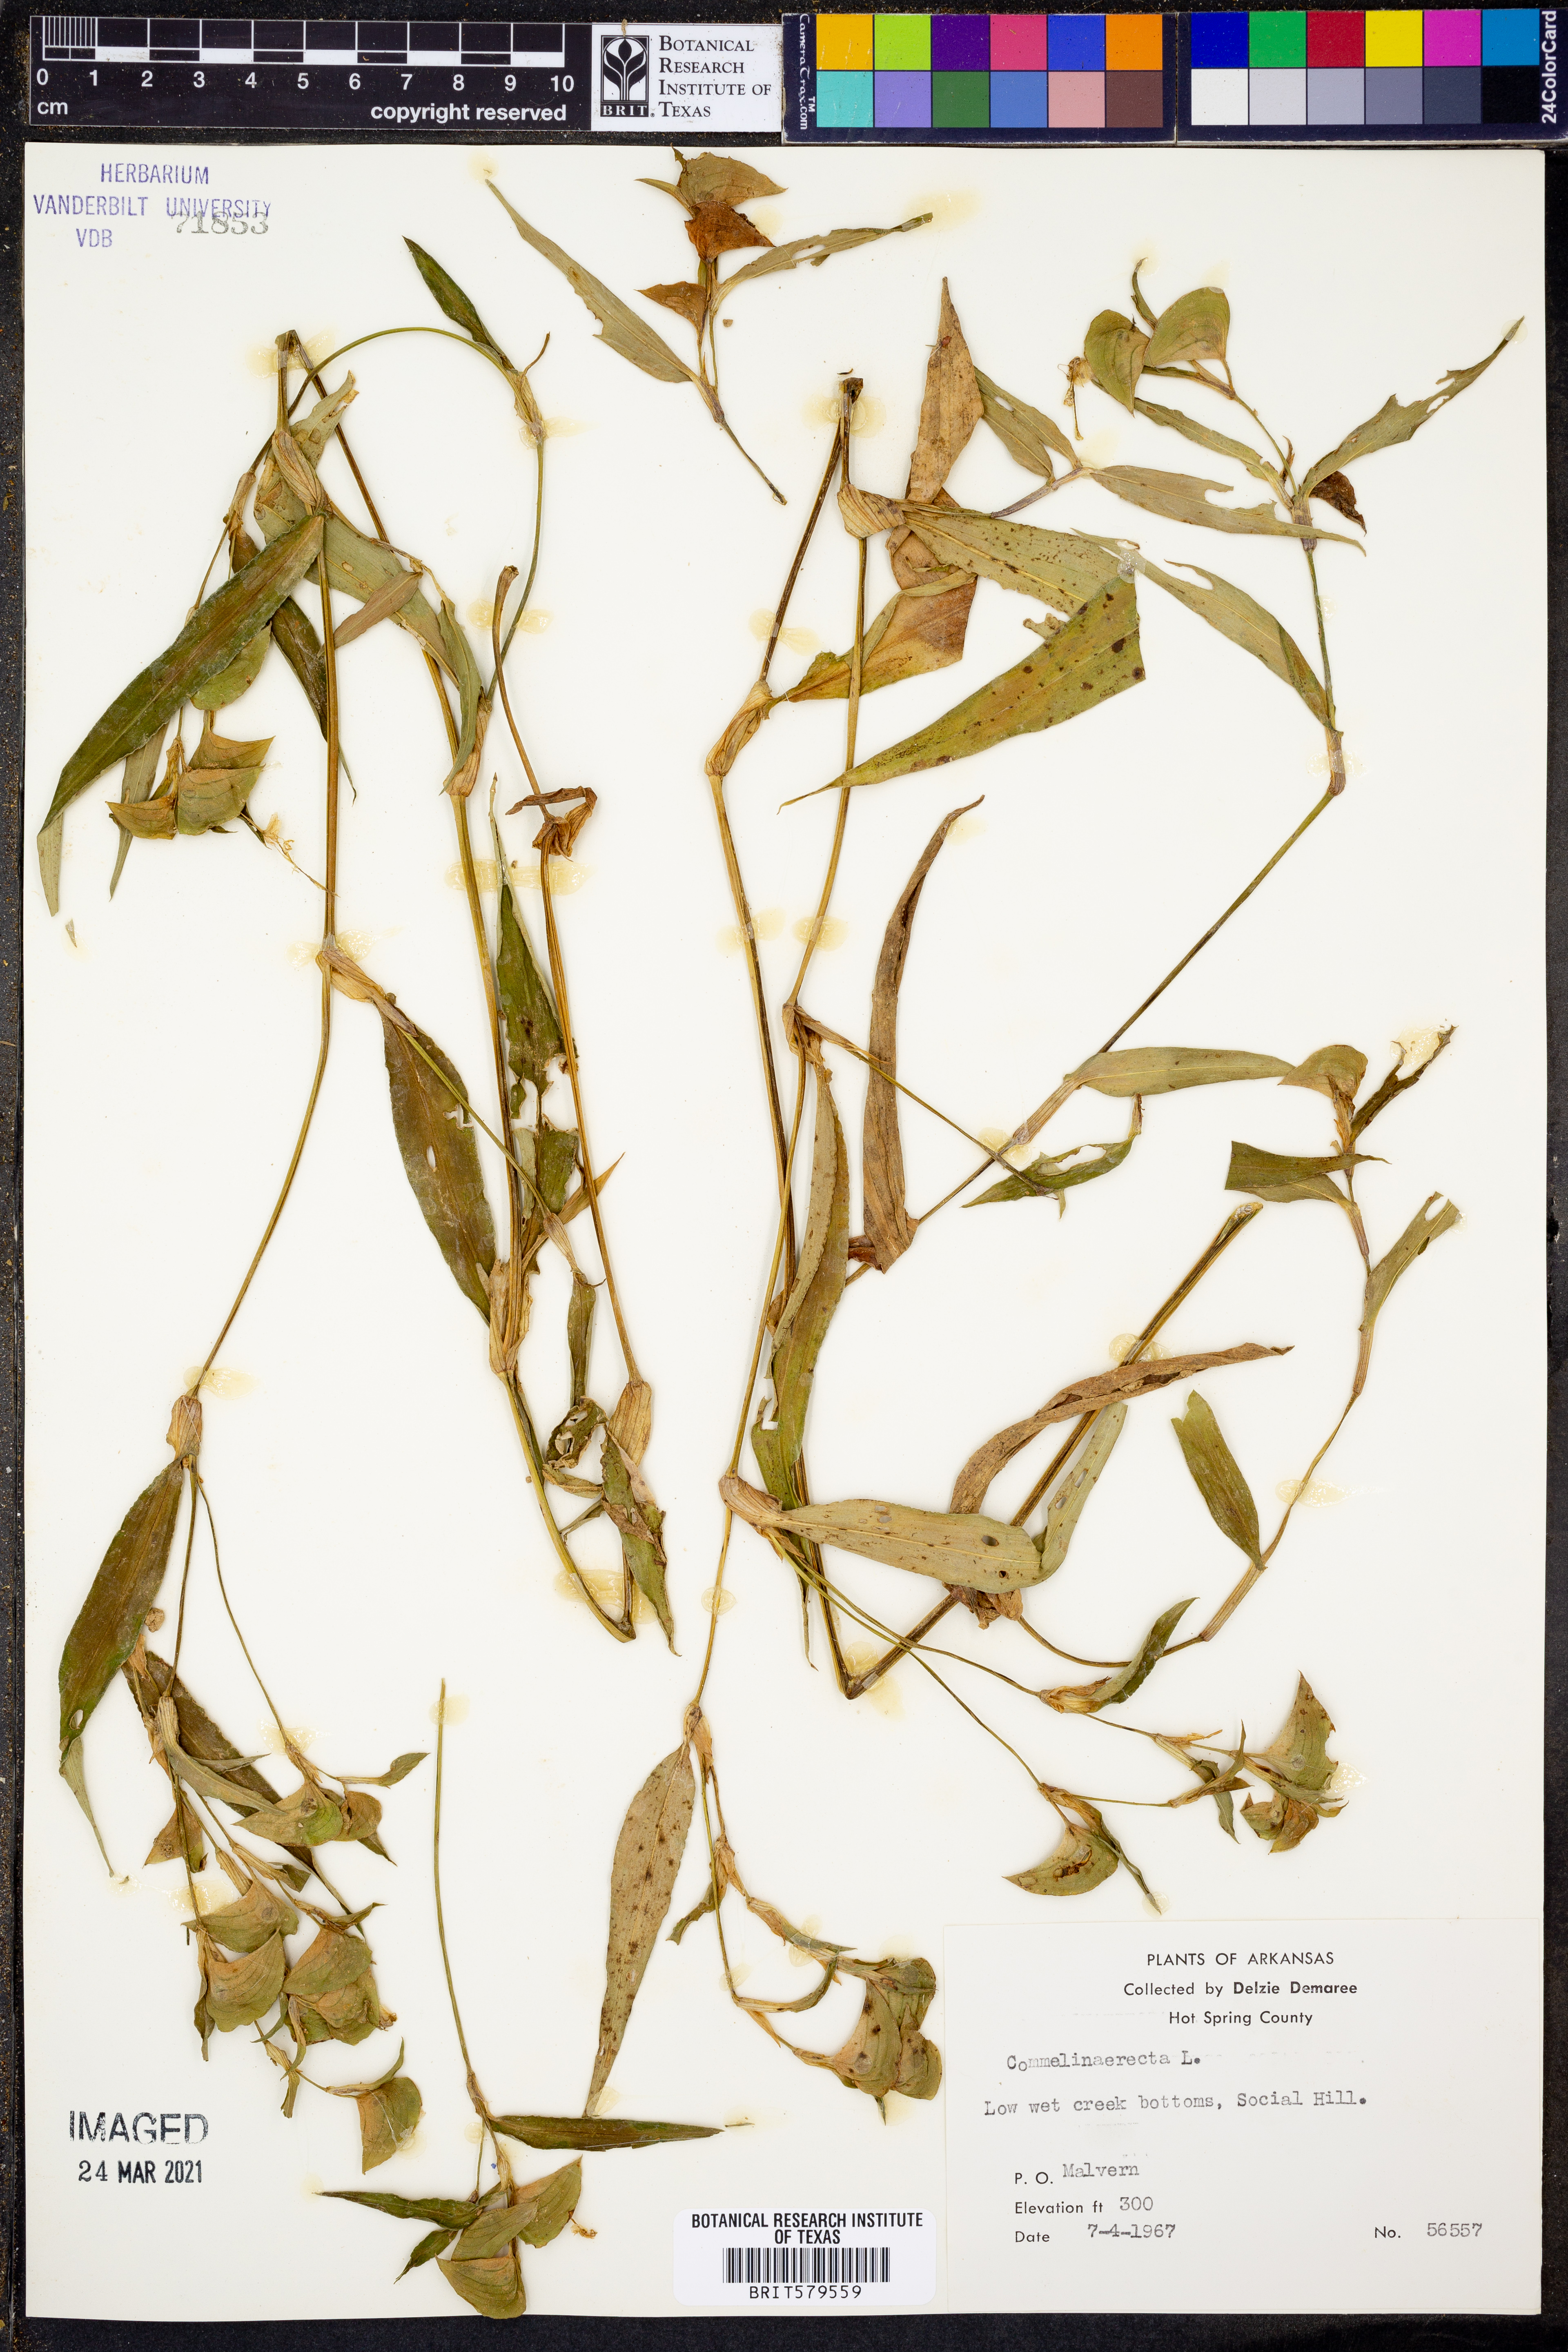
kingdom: Plantae
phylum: Tracheophyta
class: Liliopsida
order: Commelinales
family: Commelinaceae
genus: Commelina
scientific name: Commelina erecta
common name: Blousel blommetjie
